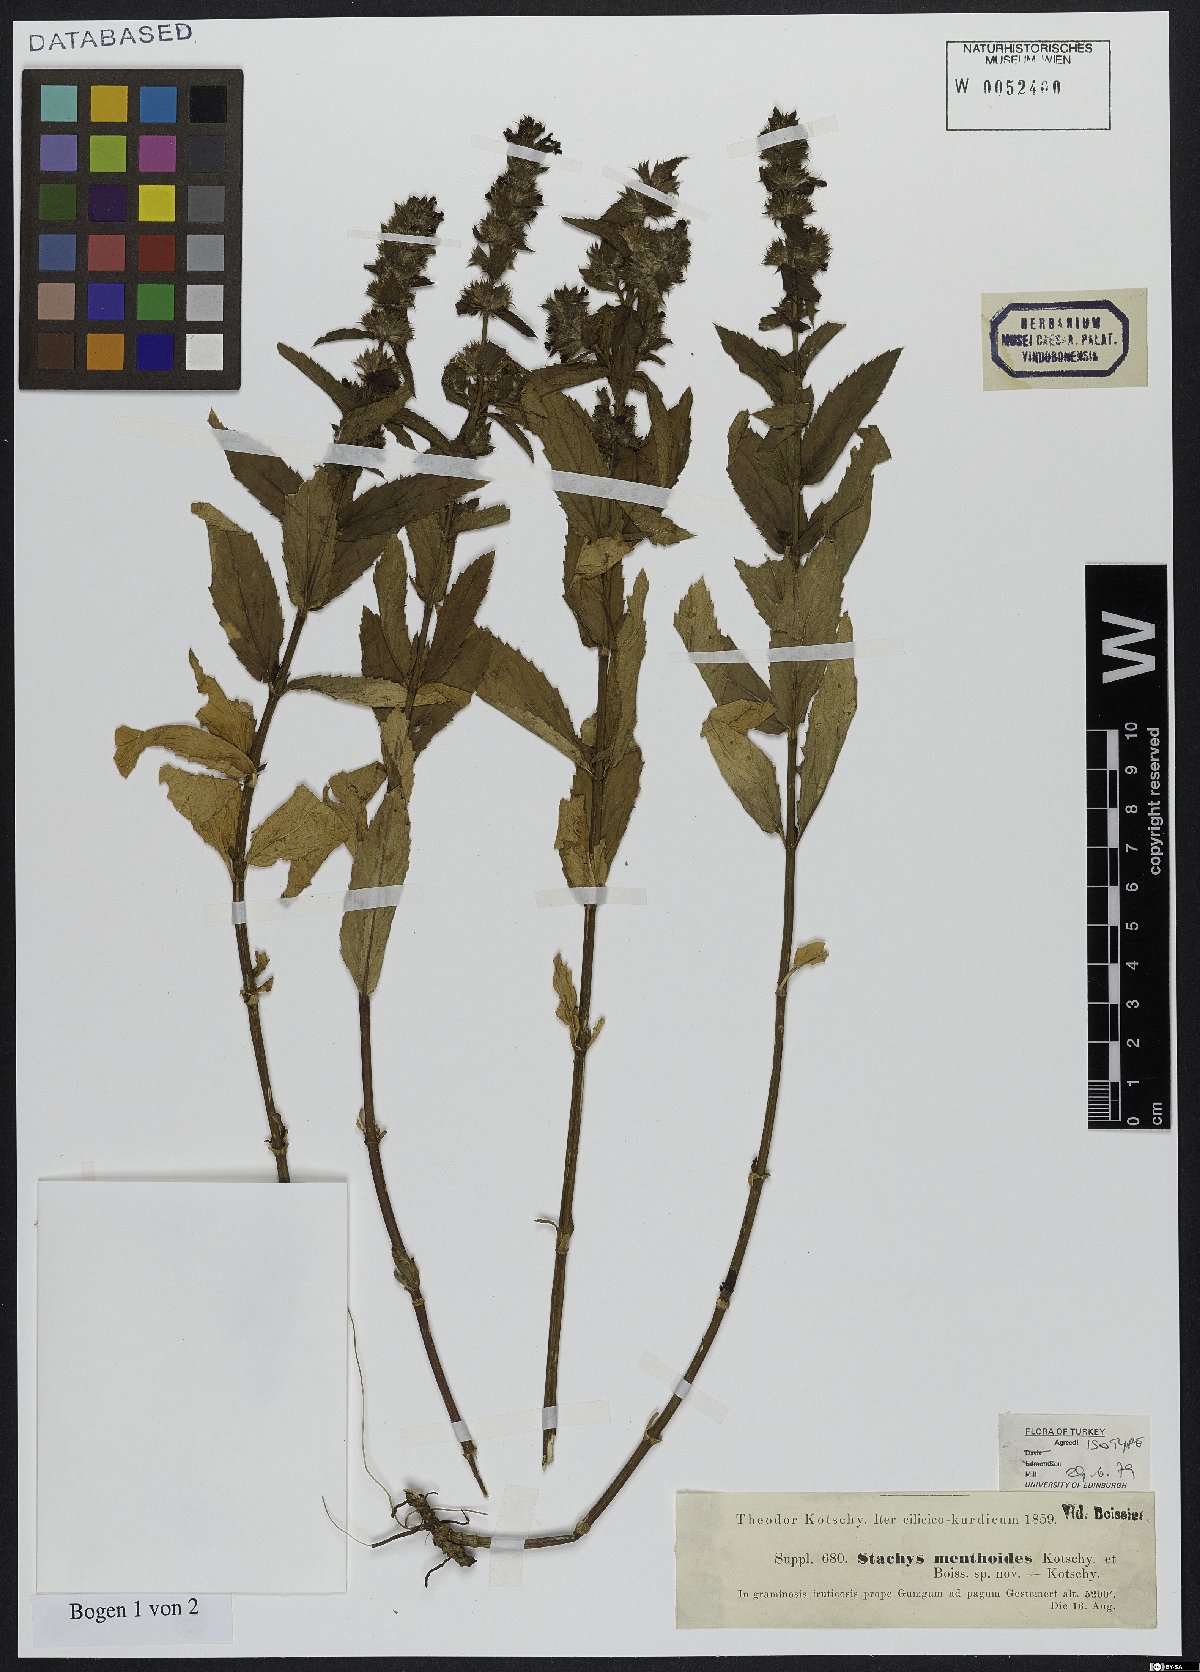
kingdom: Plantae
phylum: Tracheophyta
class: Magnoliopsida
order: Lamiales
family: Lamiaceae
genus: Stachys
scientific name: Stachys menthoides
